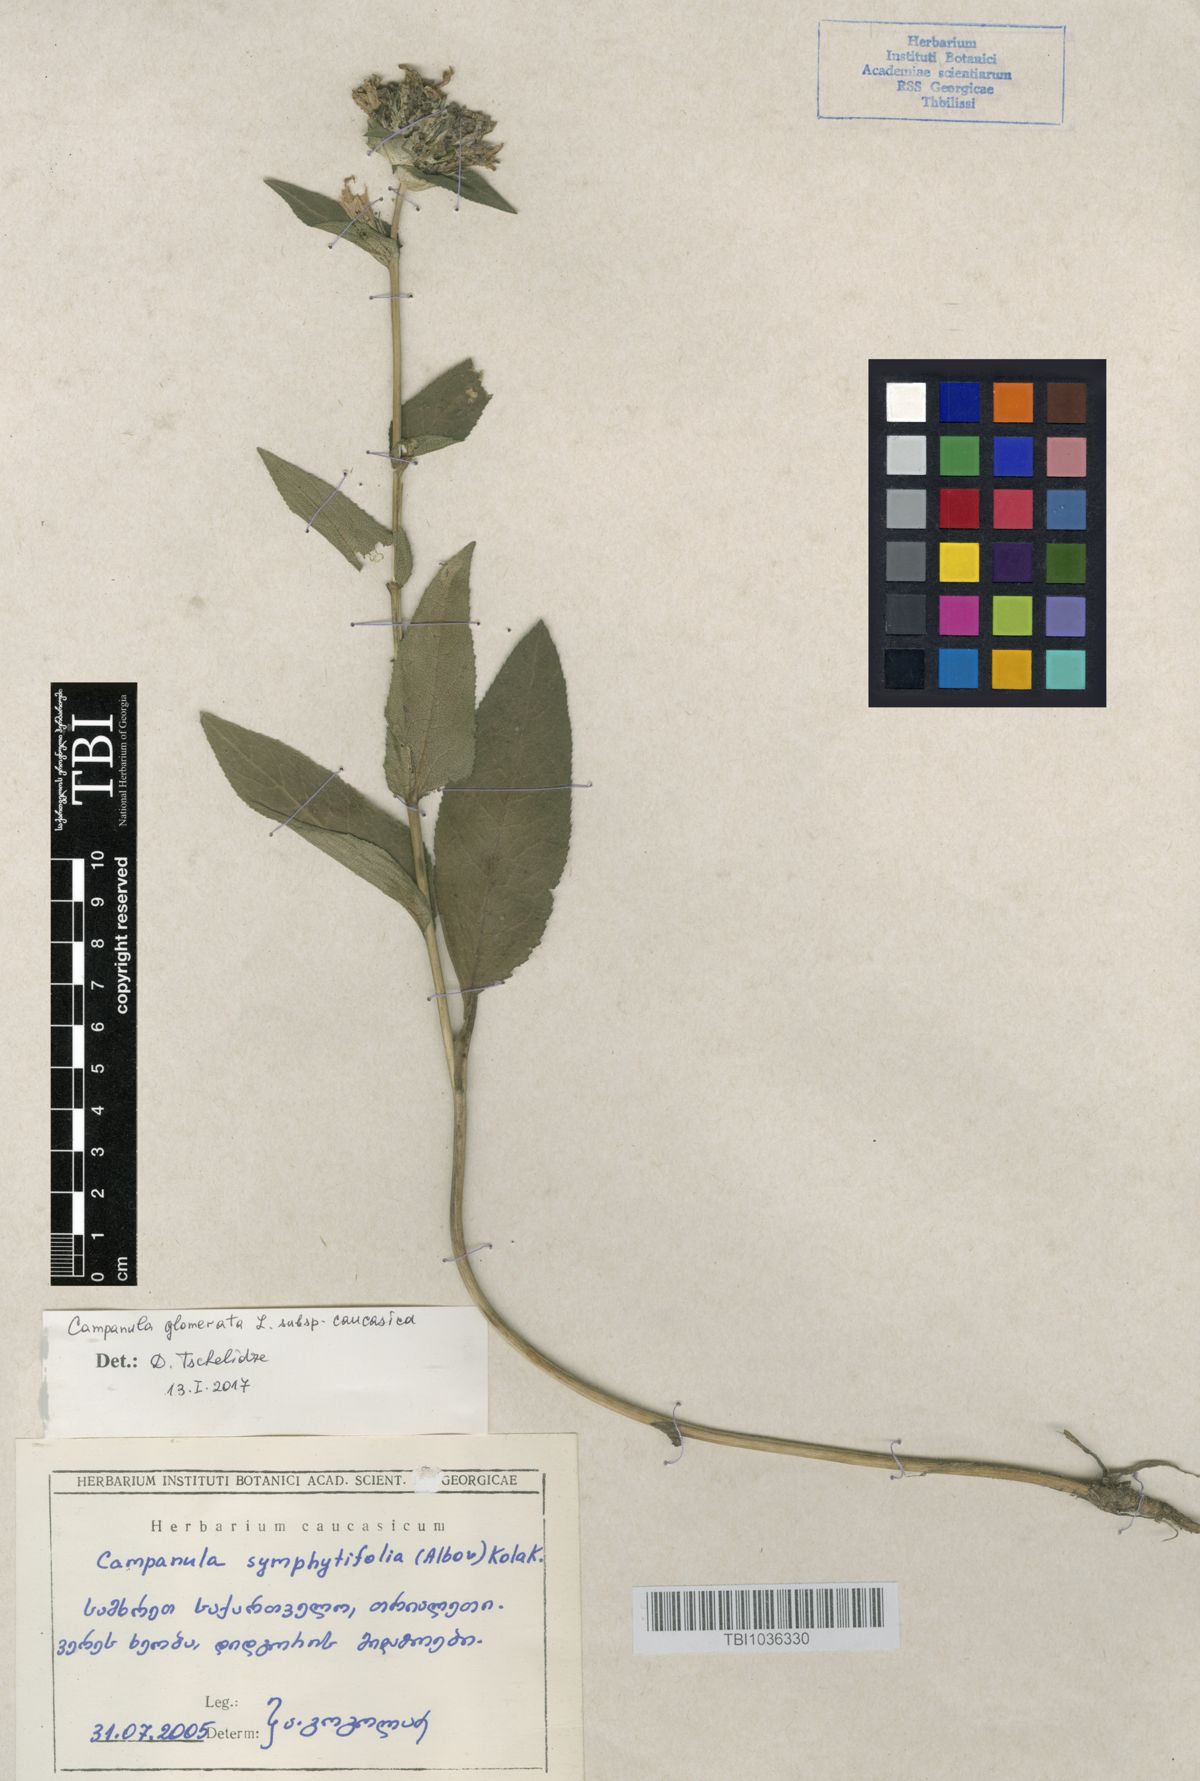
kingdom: Plantae
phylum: Tracheophyta
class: Magnoliopsida
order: Asterales
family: Campanulaceae
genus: Campanula
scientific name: Campanula glomerata
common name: Clustered bellflower
